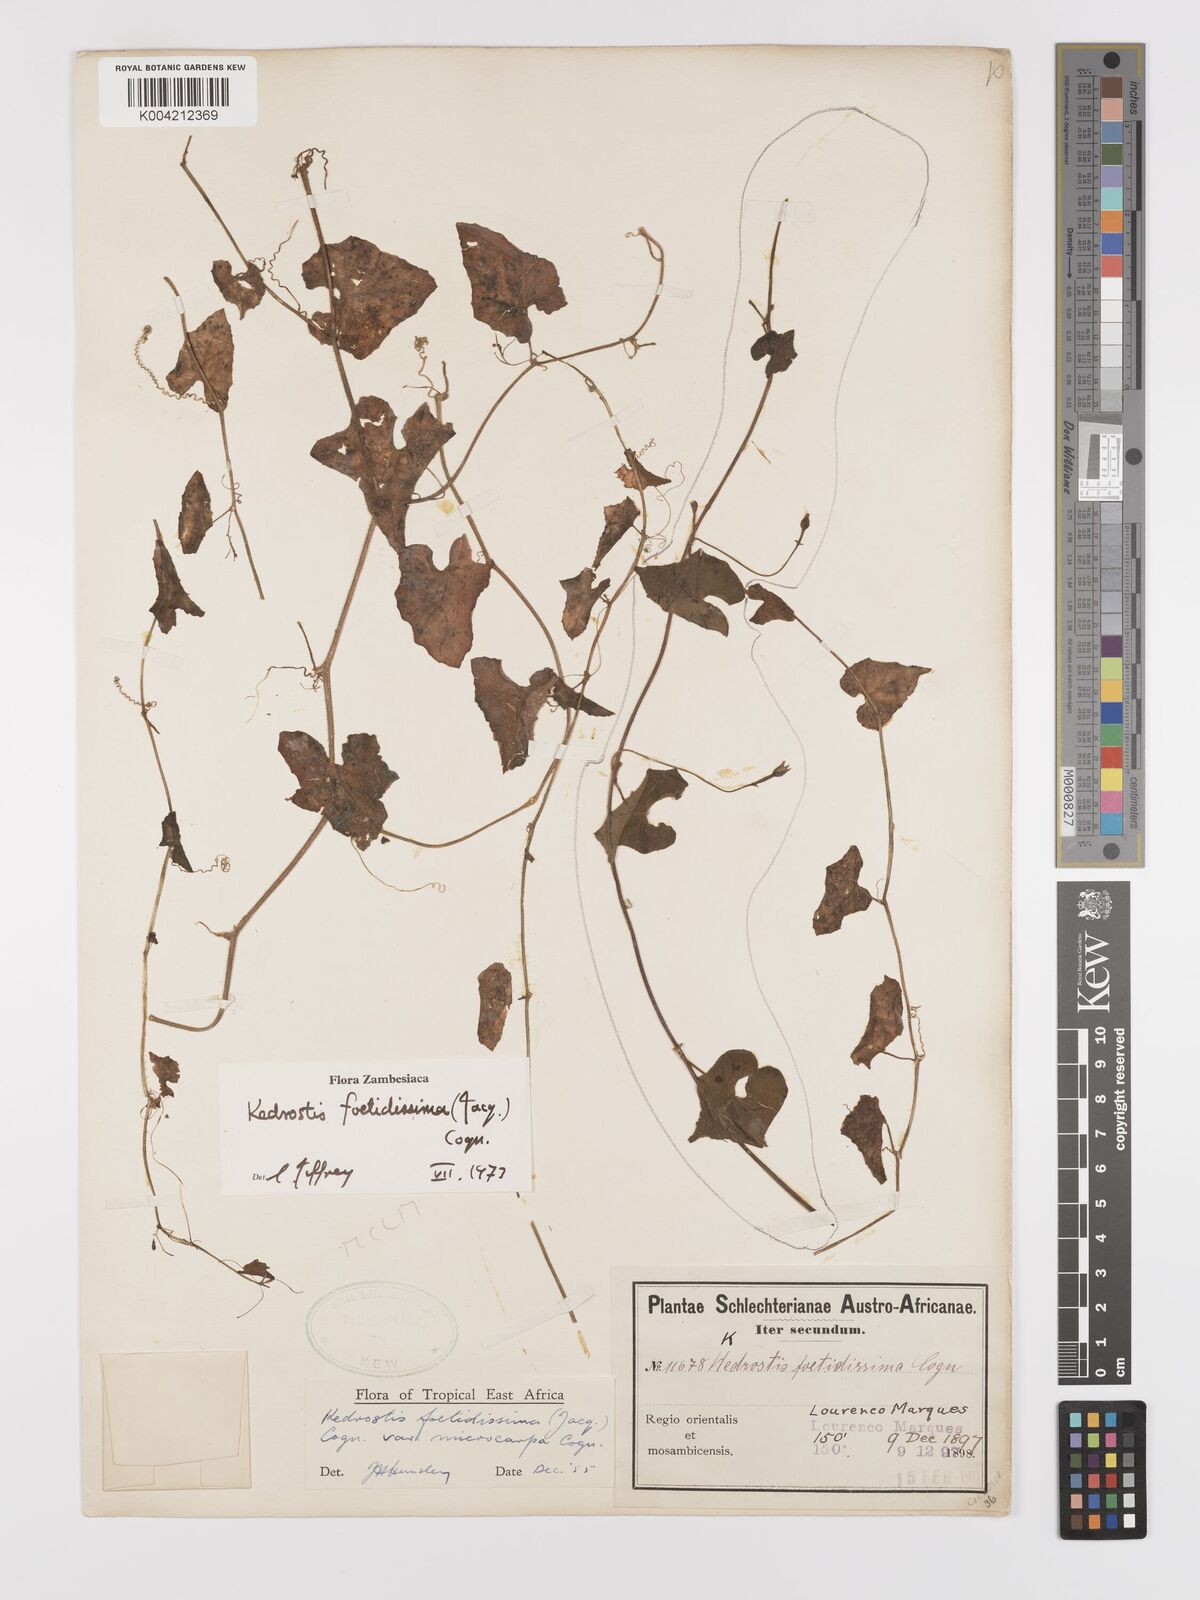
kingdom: Plantae
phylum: Tracheophyta
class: Magnoliopsida
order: Cucurbitales
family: Cucurbitaceae
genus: Kedrostis
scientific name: Kedrostis foetidissima
